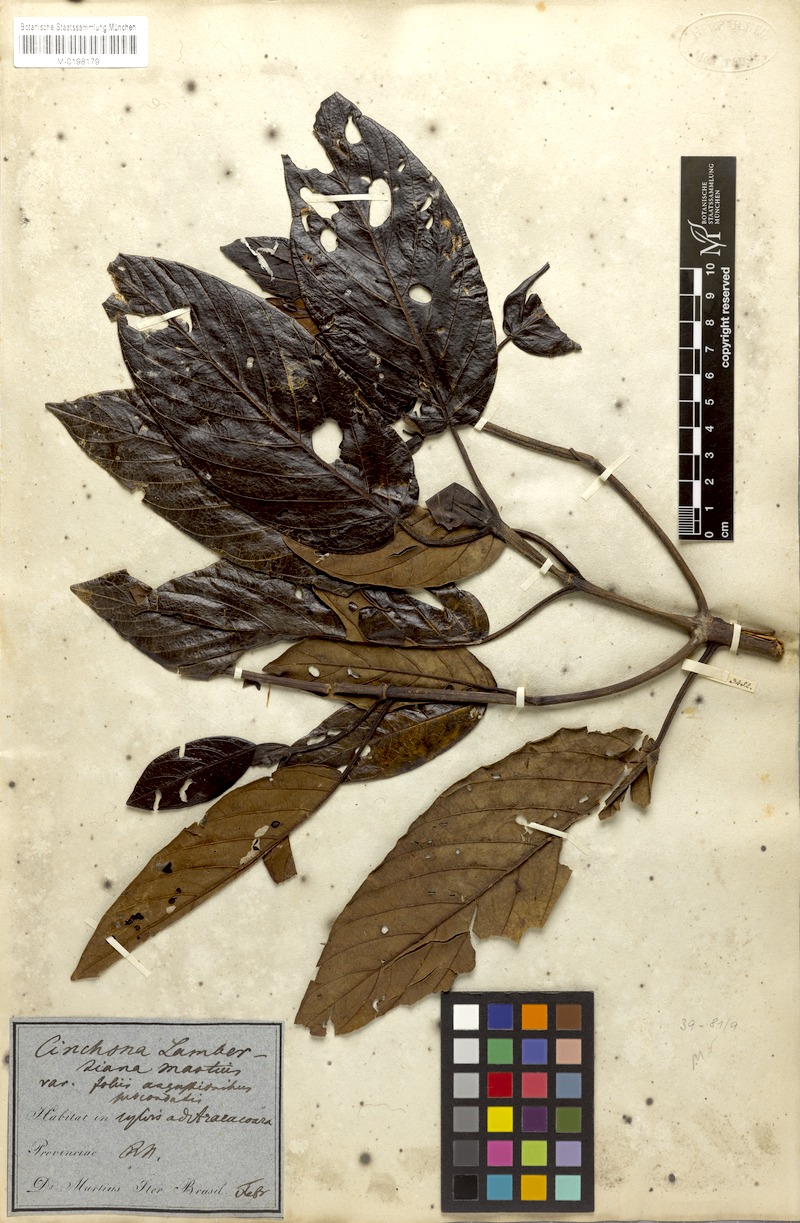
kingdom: Plantae
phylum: Tracheophyta
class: Magnoliopsida
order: Gentianales
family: Rubiaceae
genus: Ladenbergia
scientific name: Ladenbergia lambertiana
